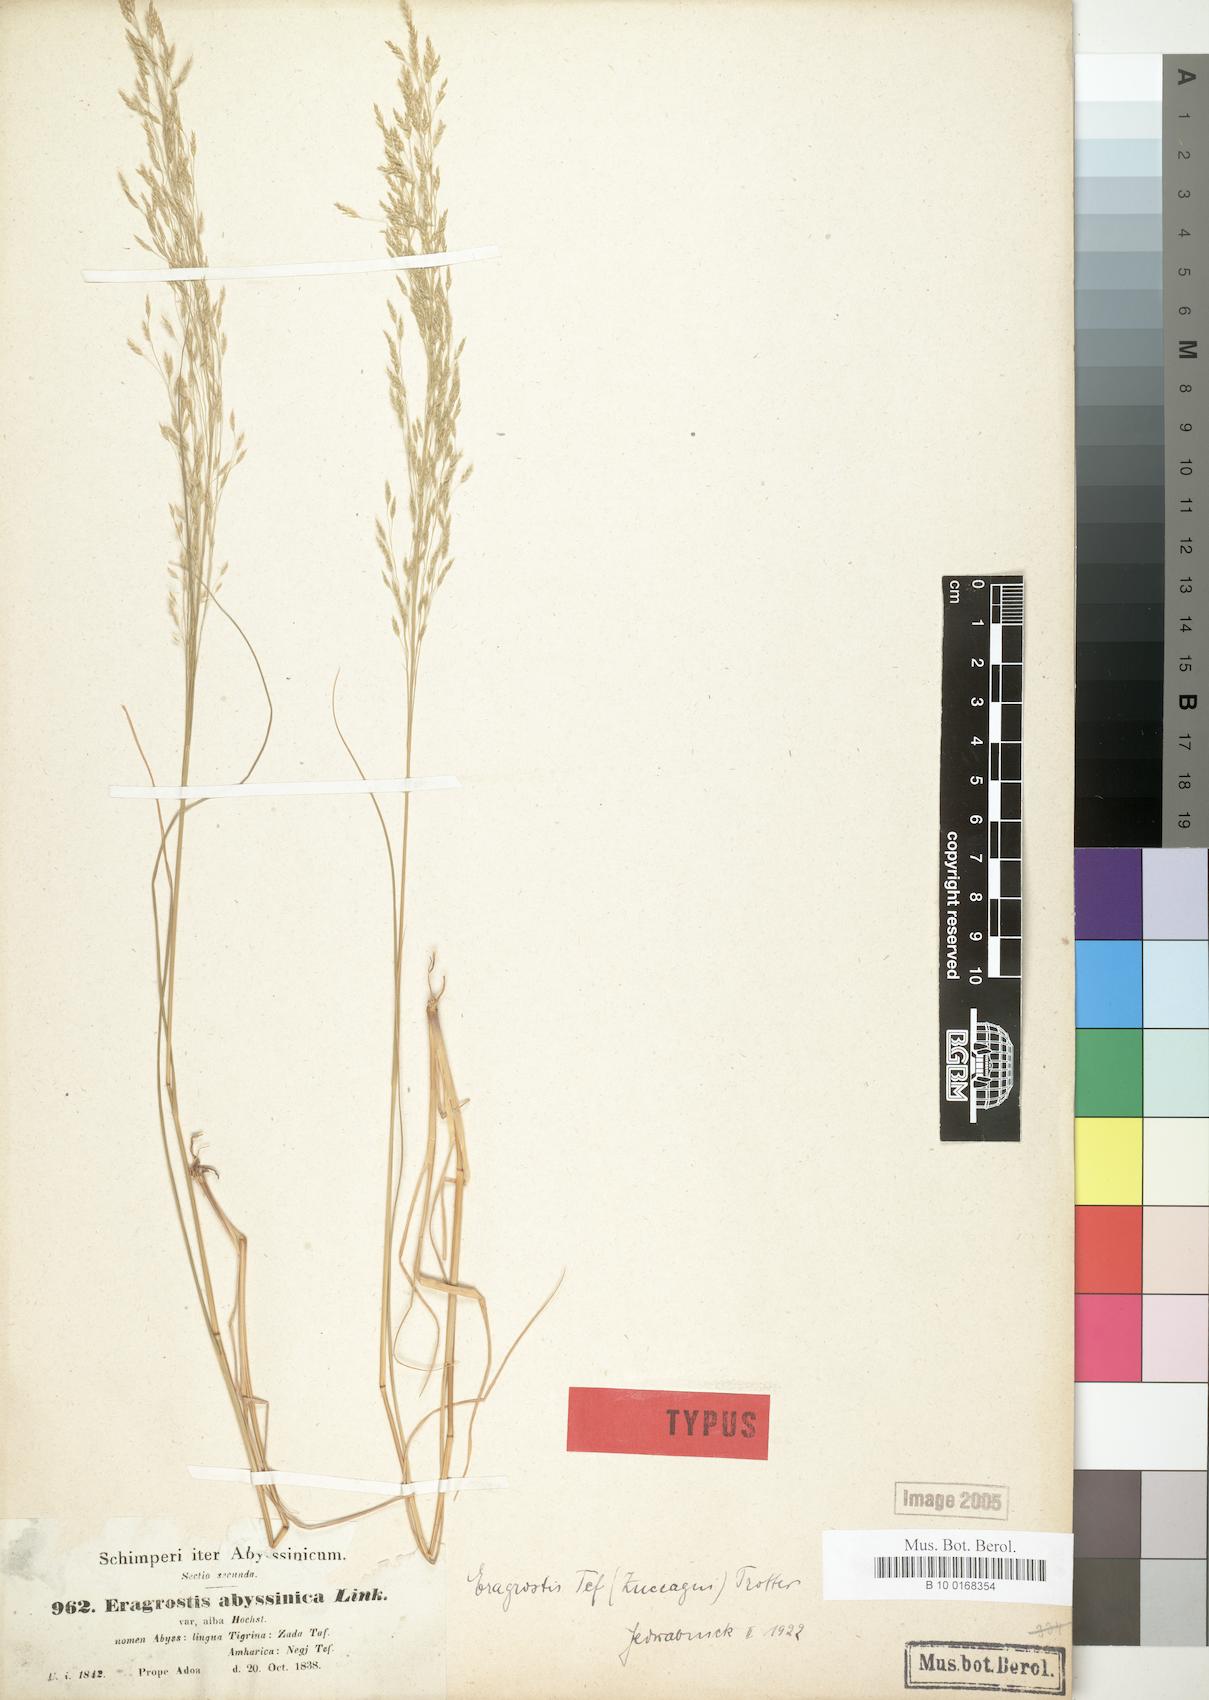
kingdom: Plantae
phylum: Tracheophyta
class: Liliopsida
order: Poales
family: Poaceae
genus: Eragrostis
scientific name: Eragrostis tef
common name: Teff
